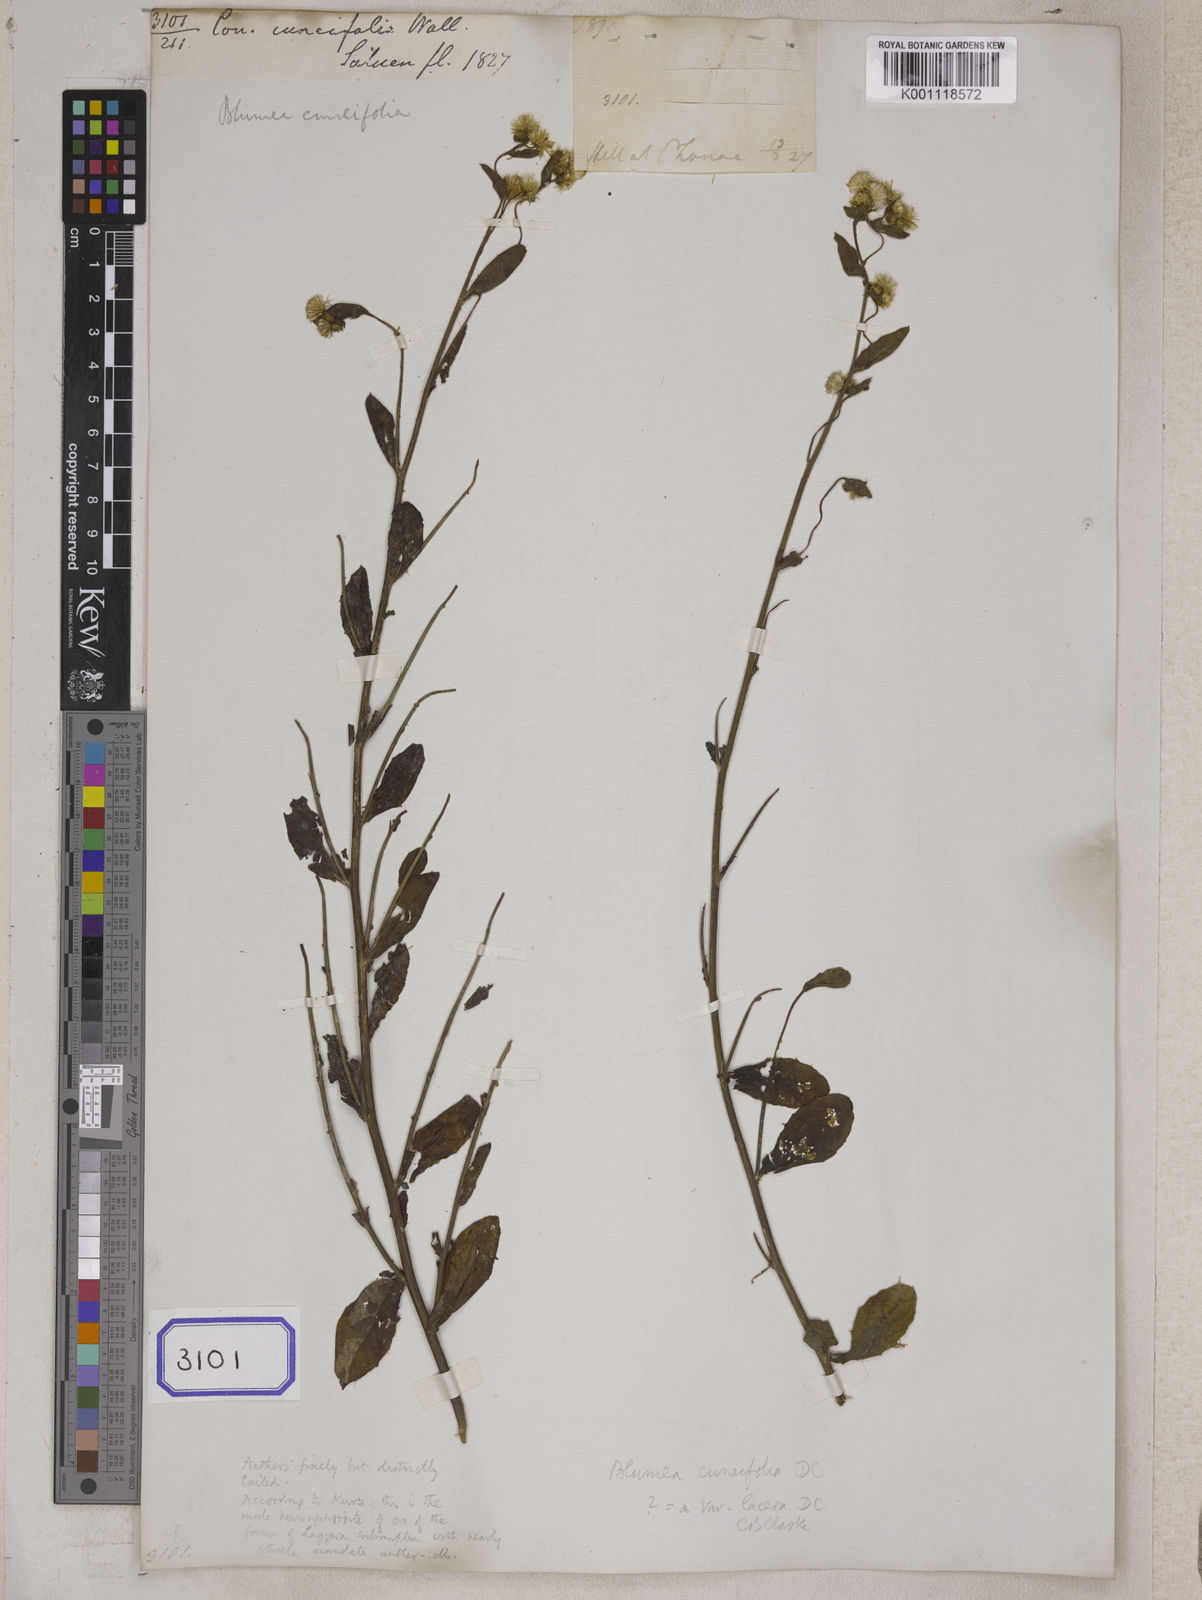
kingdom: Plantae
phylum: Tracheophyta
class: Magnoliopsida
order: Asterales
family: Asteraceae
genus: Blumea
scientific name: Blumea lacera
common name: Malay blumea
